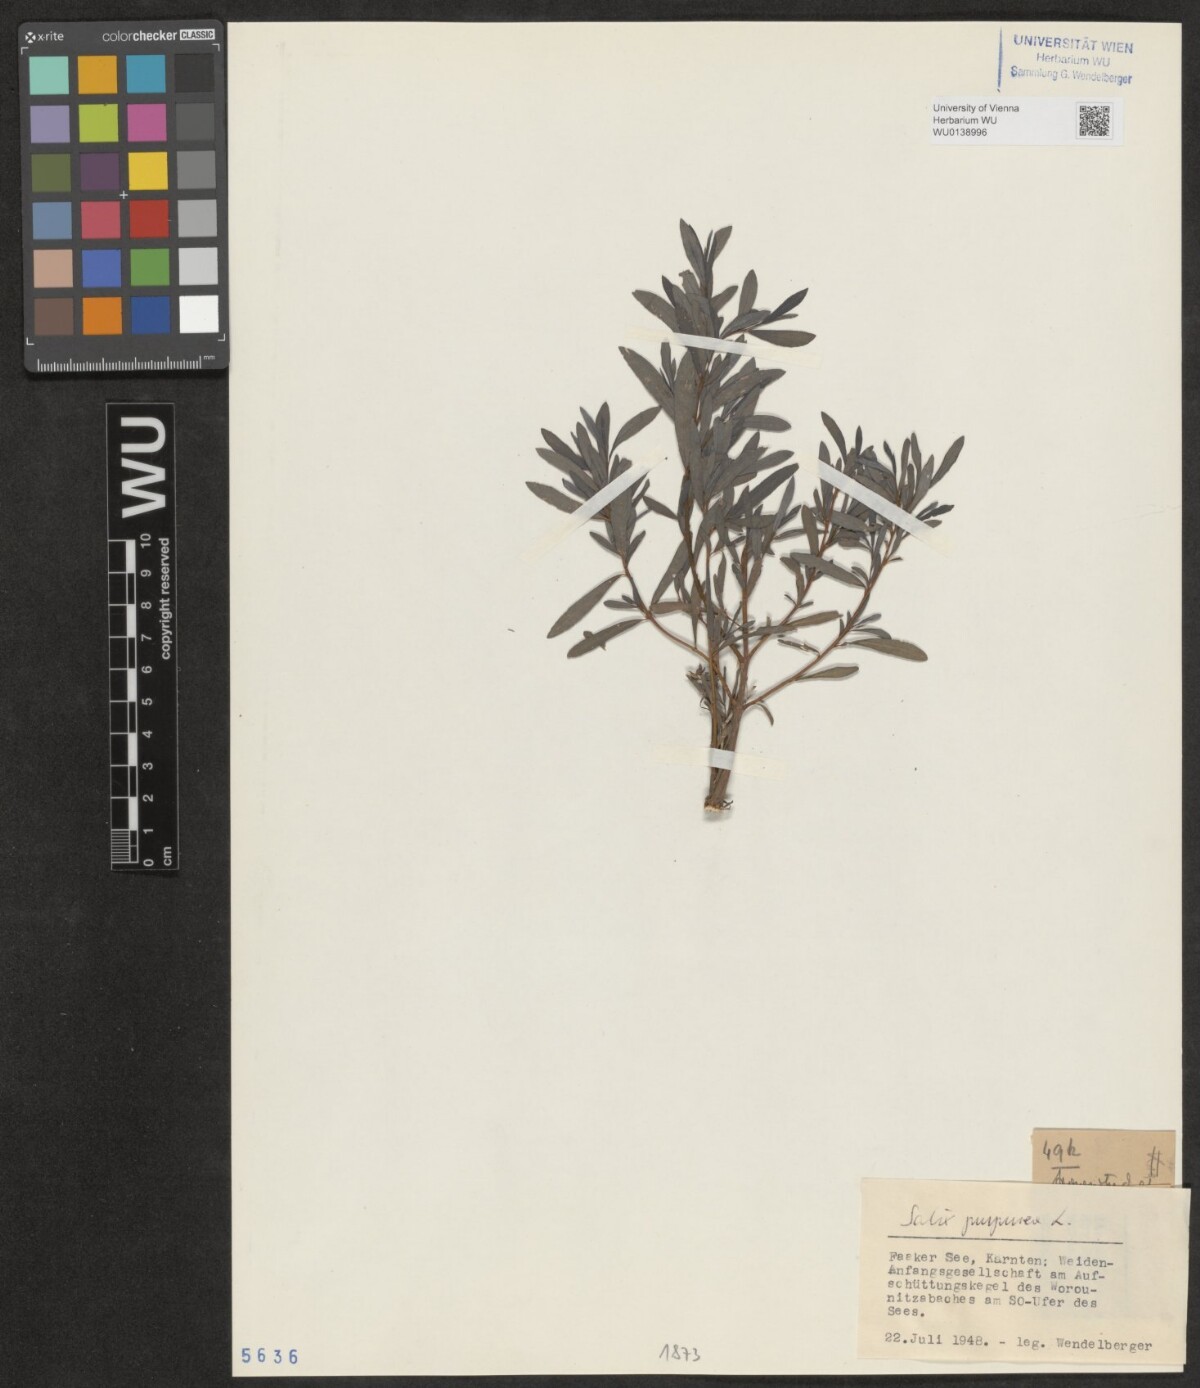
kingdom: Plantae
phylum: Tracheophyta
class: Magnoliopsida
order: Malpighiales
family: Salicaceae
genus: Salix
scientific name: Salix purpurea
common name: Purple willow
